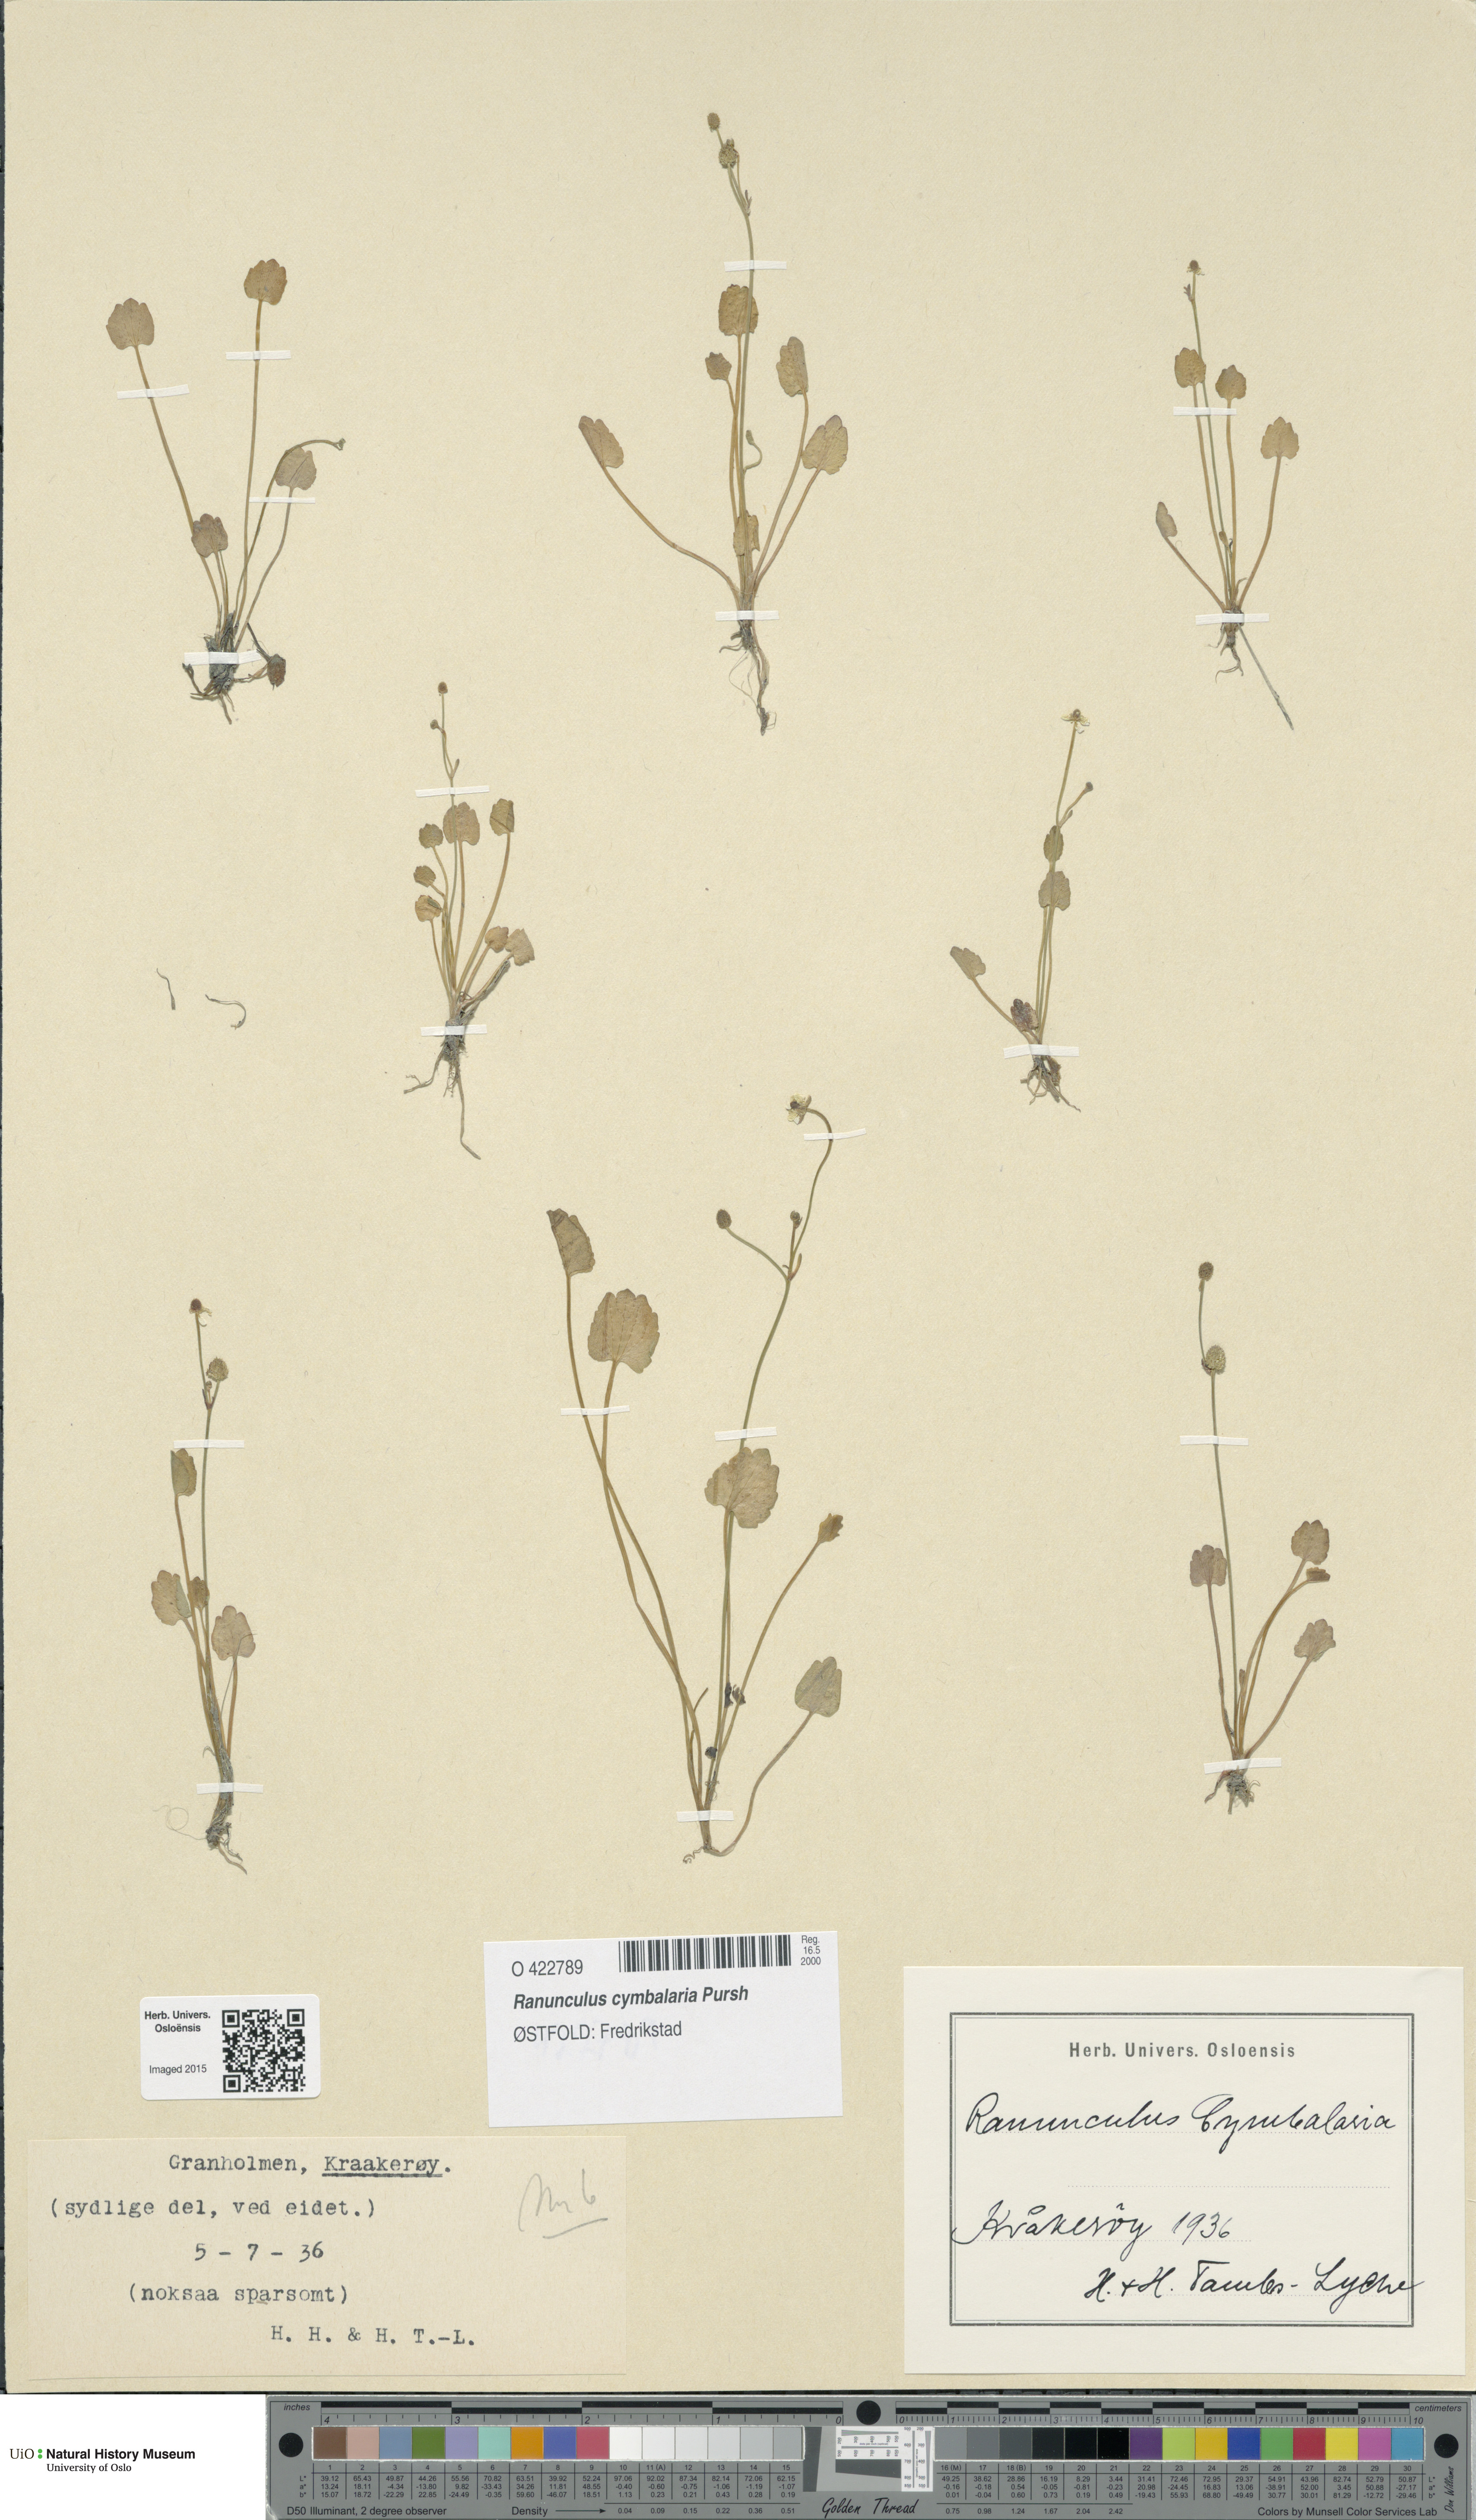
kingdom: Plantae
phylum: Tracheophyta
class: Magnoliopsida
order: Ranunculales
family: Ranunculaceae
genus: Halerpestes
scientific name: Halerpestes cymbalaria
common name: Seaside crowfoot
